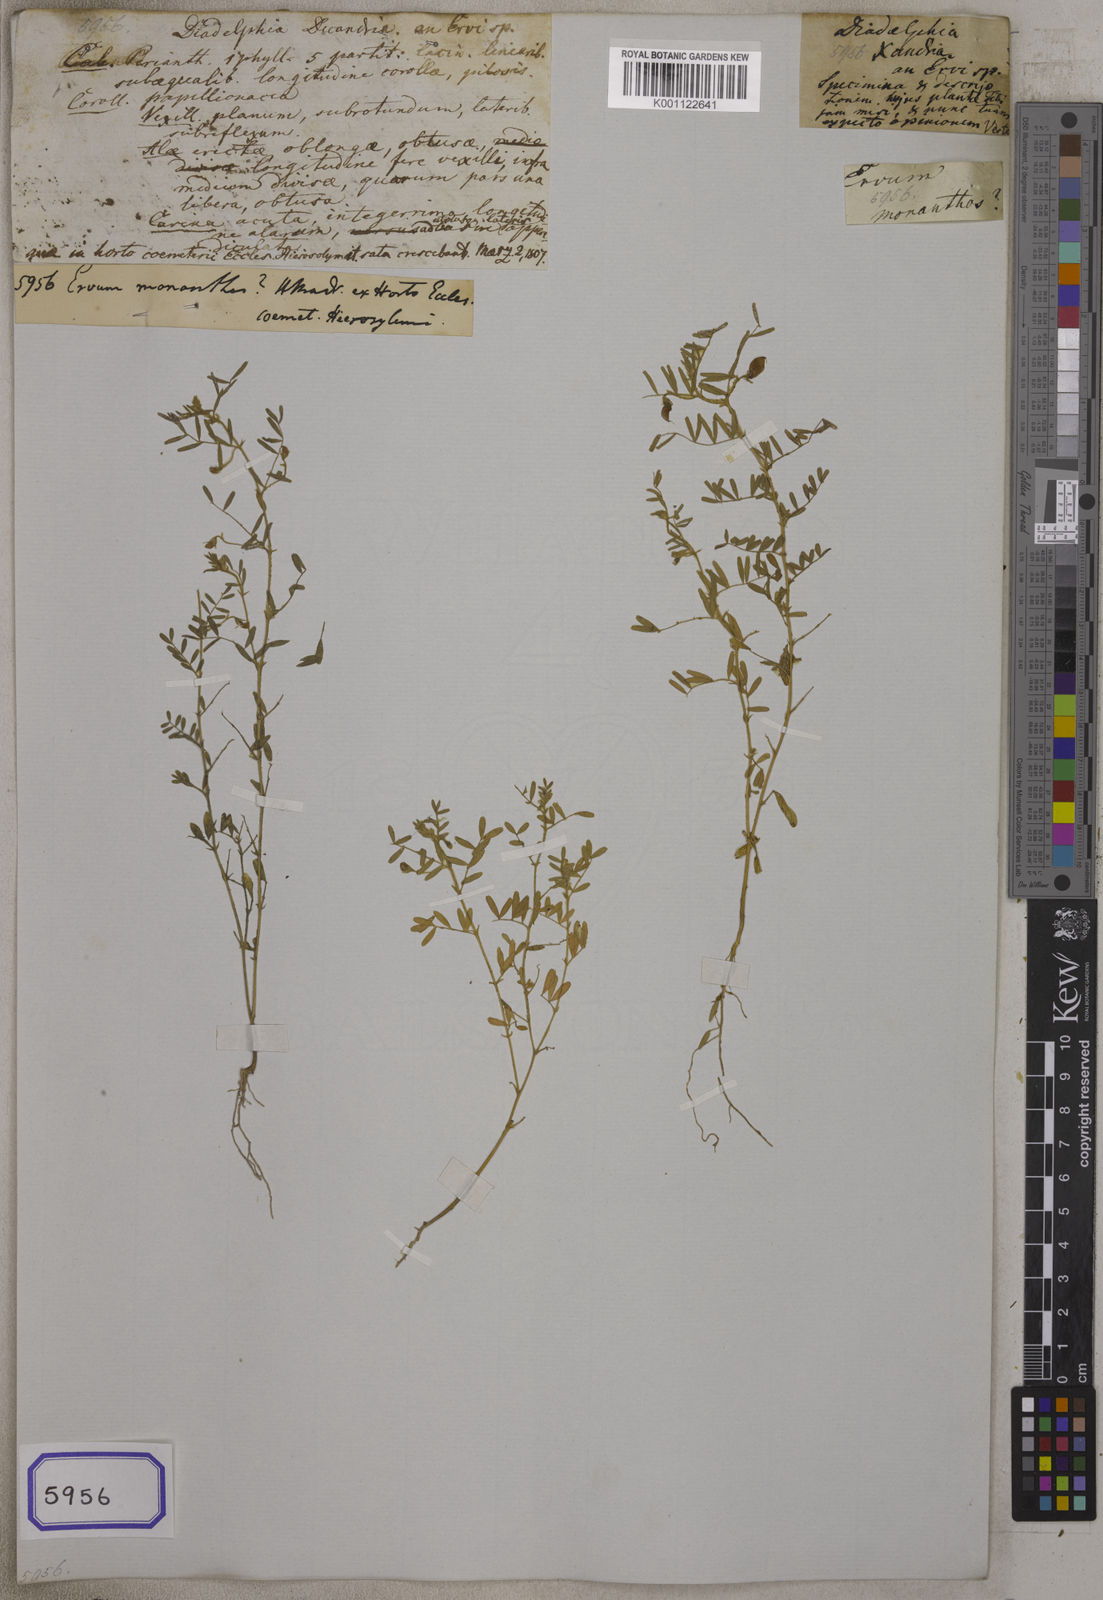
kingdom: Plantae
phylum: Tracheophyta
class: Magnoliopsida
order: Fabales
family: Fabaceae
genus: Vicia
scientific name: Vicia articulata
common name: Monantha vetch
